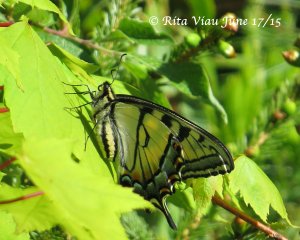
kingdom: Animalia
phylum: Arthropoda
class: Insecta
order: Lepidoptera
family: Papilionidae
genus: Pterourus
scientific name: Pterourus canadensis
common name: Canadian Tiger Swallowtail
